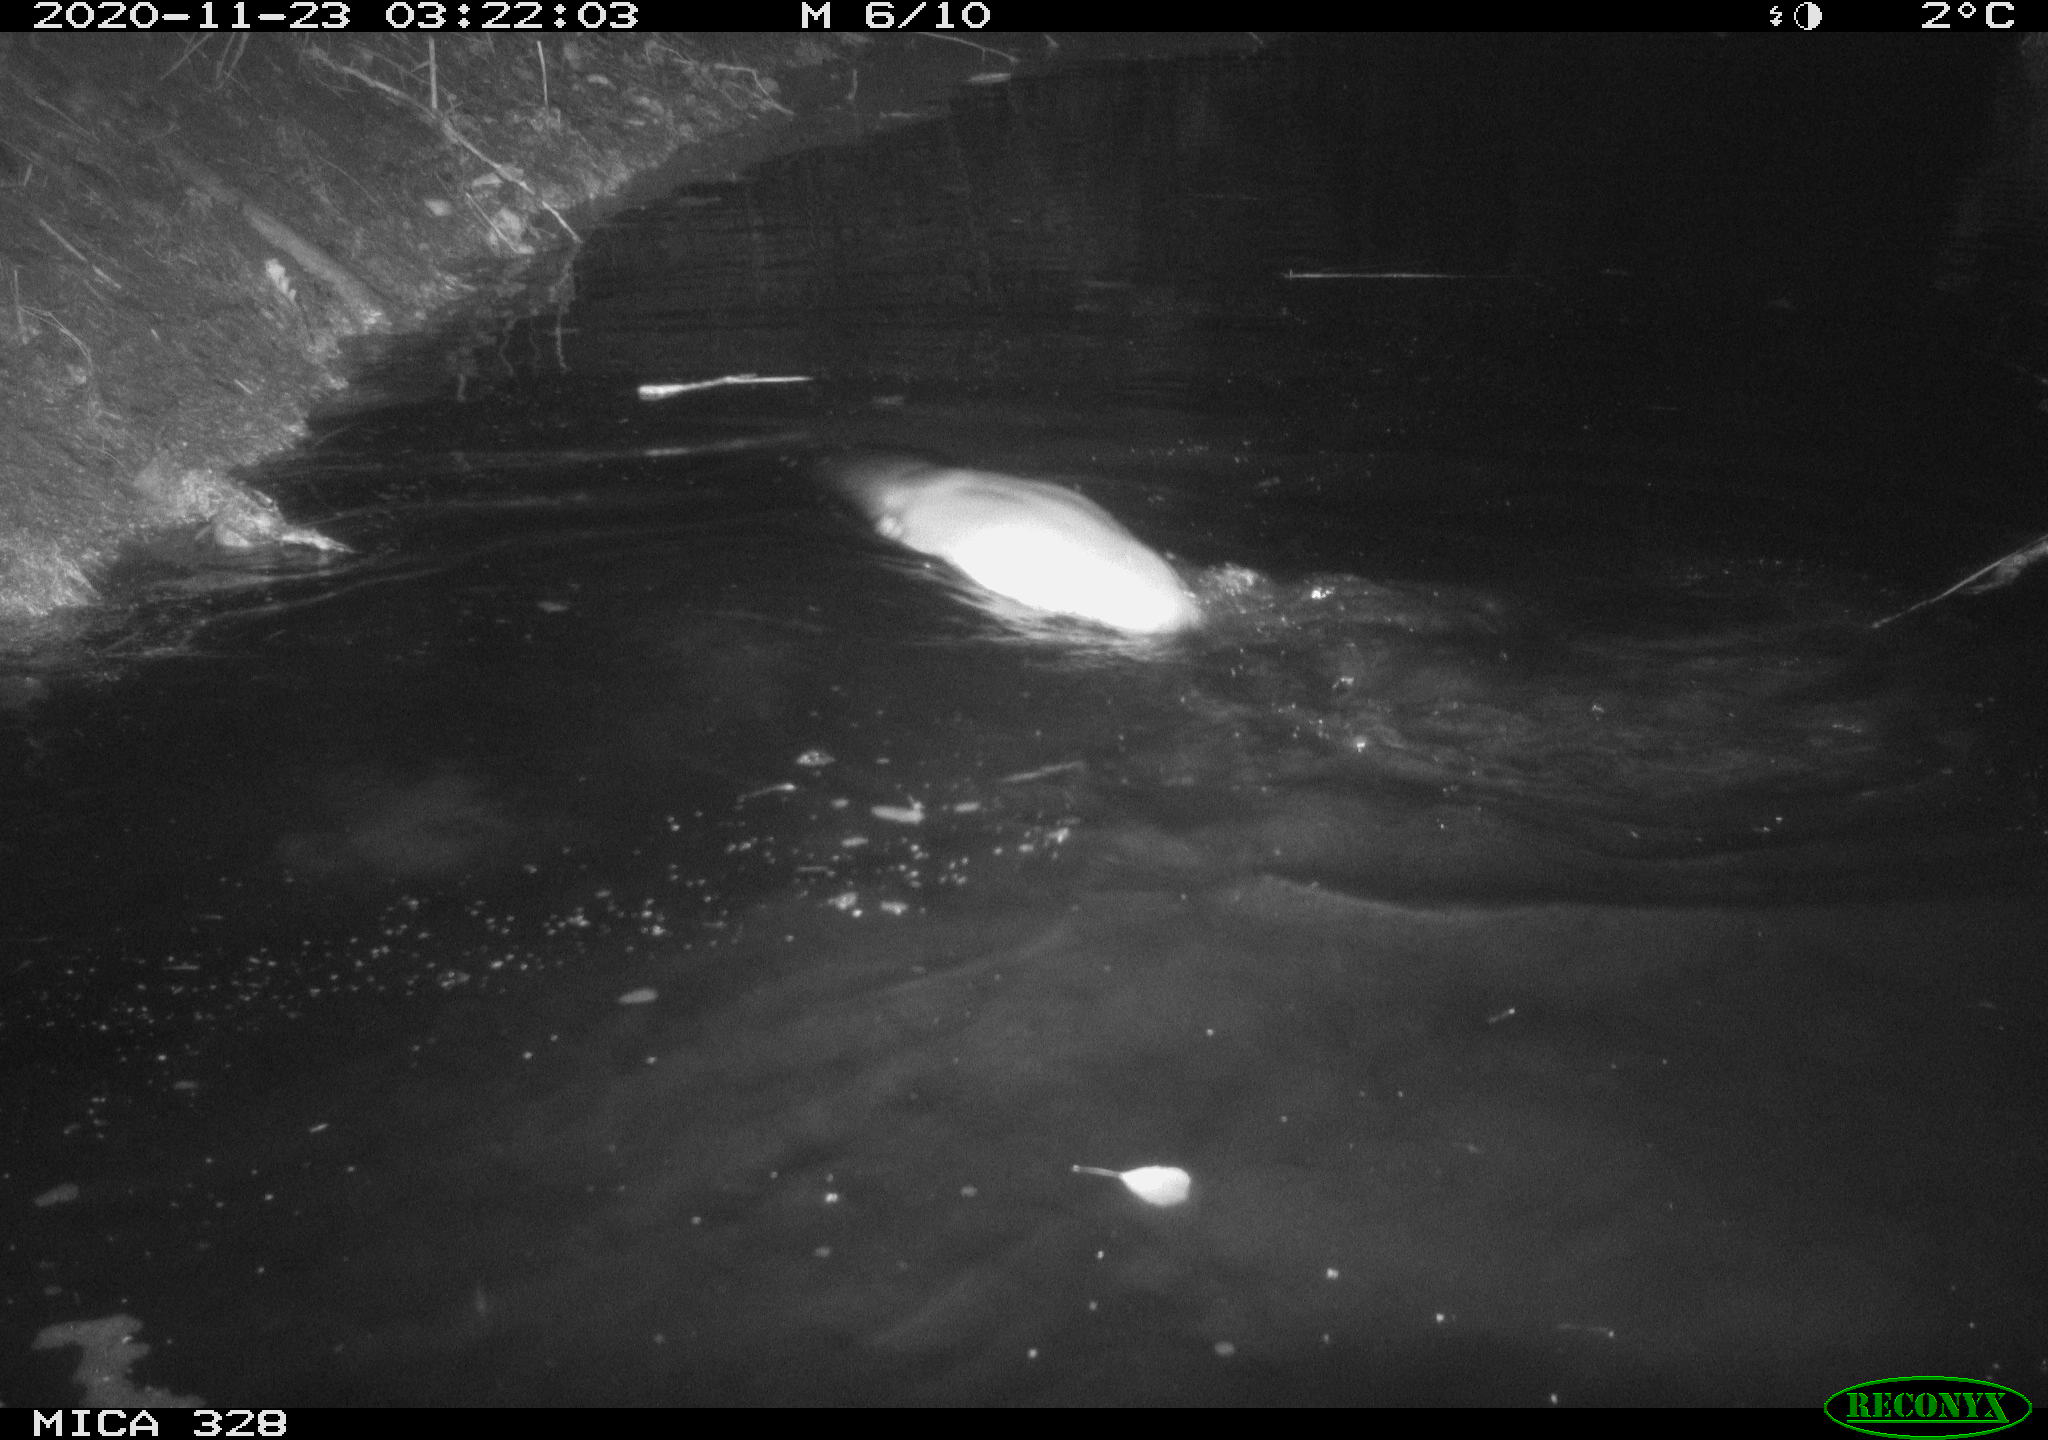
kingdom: Animalia
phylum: Chordata
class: Mammalia
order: Carnivora
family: Mustelidae
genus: Lutra
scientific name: Lutra lutra
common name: European otter
